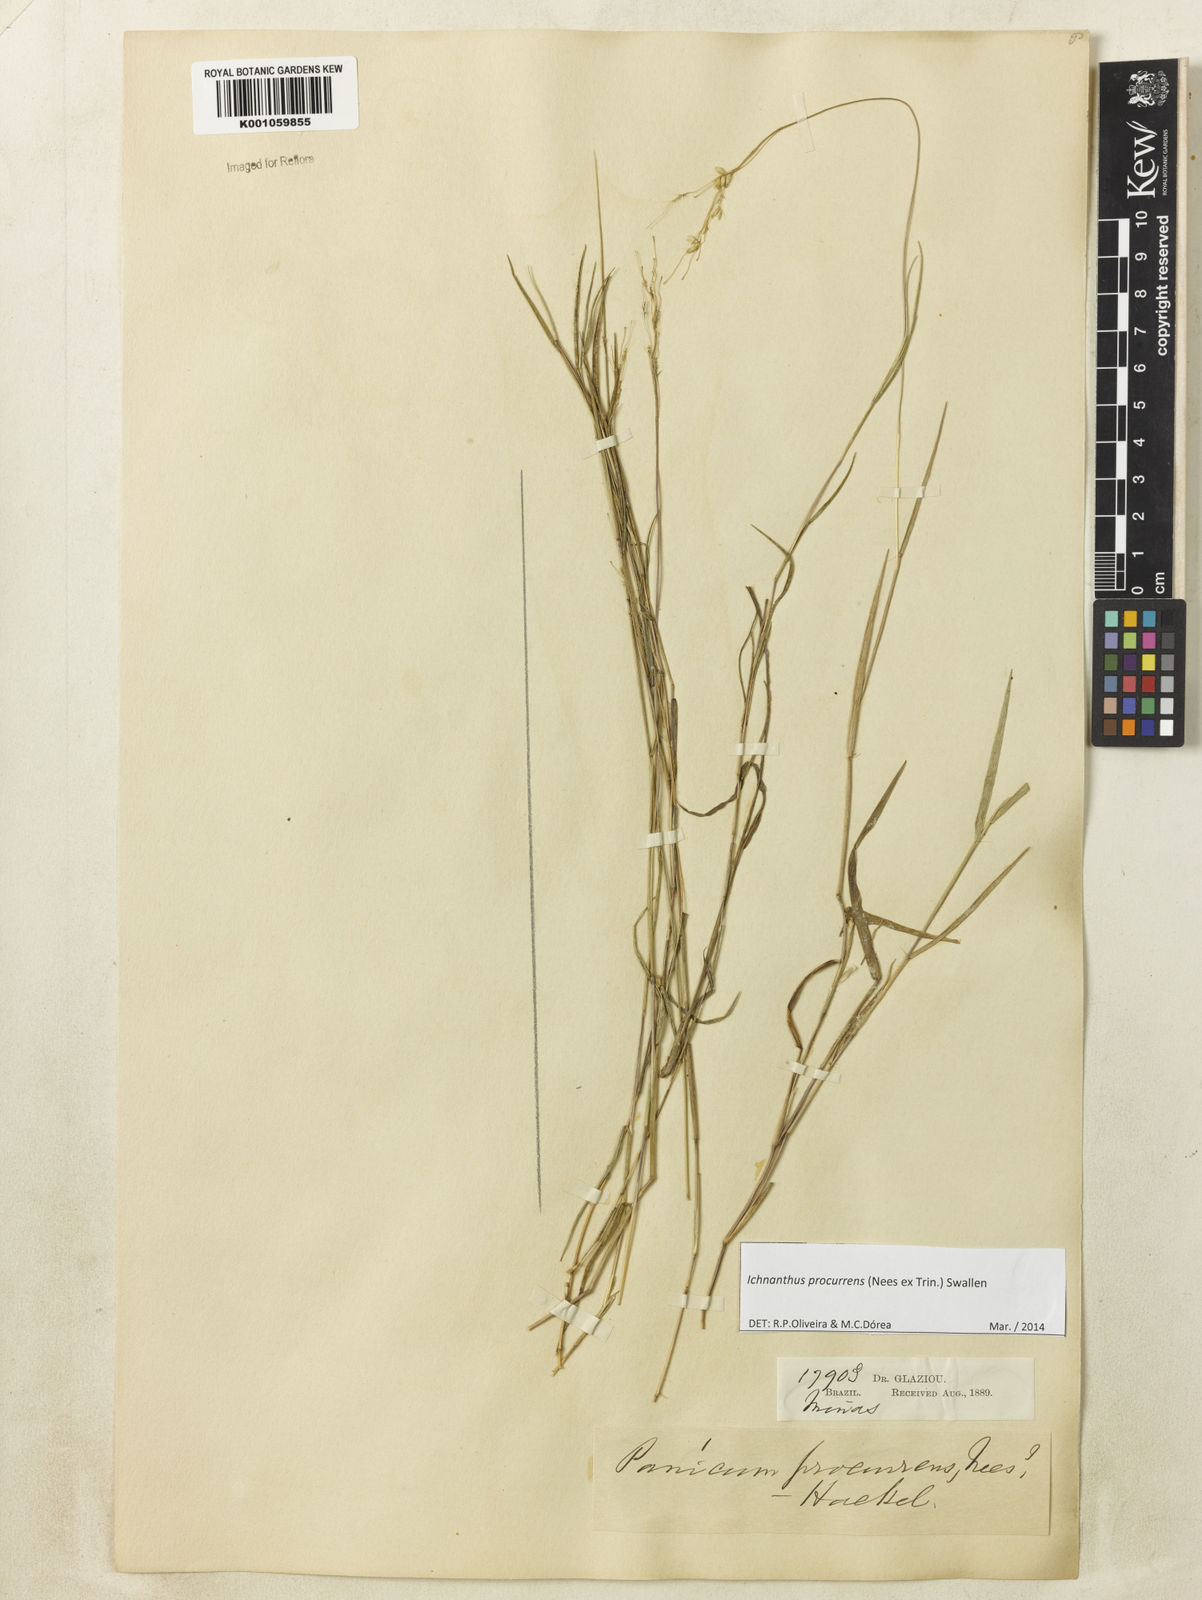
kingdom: Plantae
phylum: Tracheophyta
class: Liliopsida
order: Poales
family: Poaceae
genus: Oedochloa
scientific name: Oedochloa procurrens
